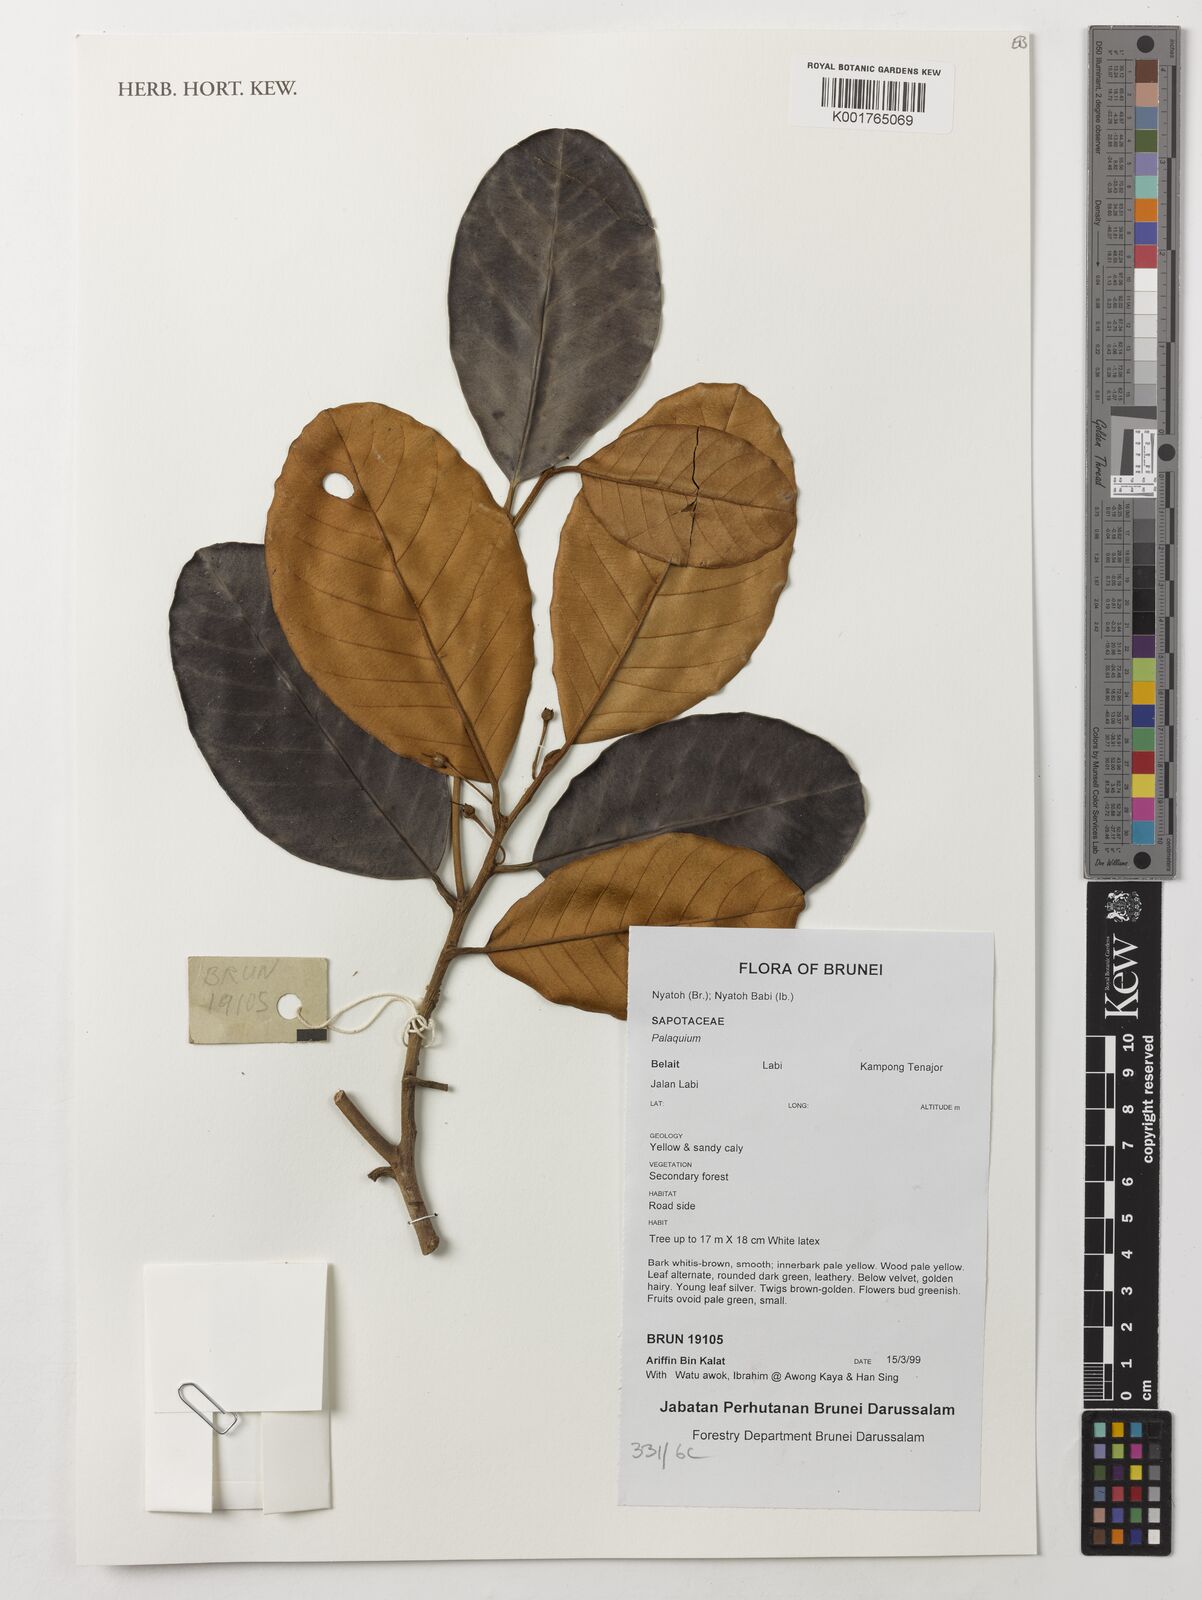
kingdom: Plantae
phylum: Tracheophyta
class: Magnoliopsida
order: Ericales
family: Sapotaceae
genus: Palaquium
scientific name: Palaquium
